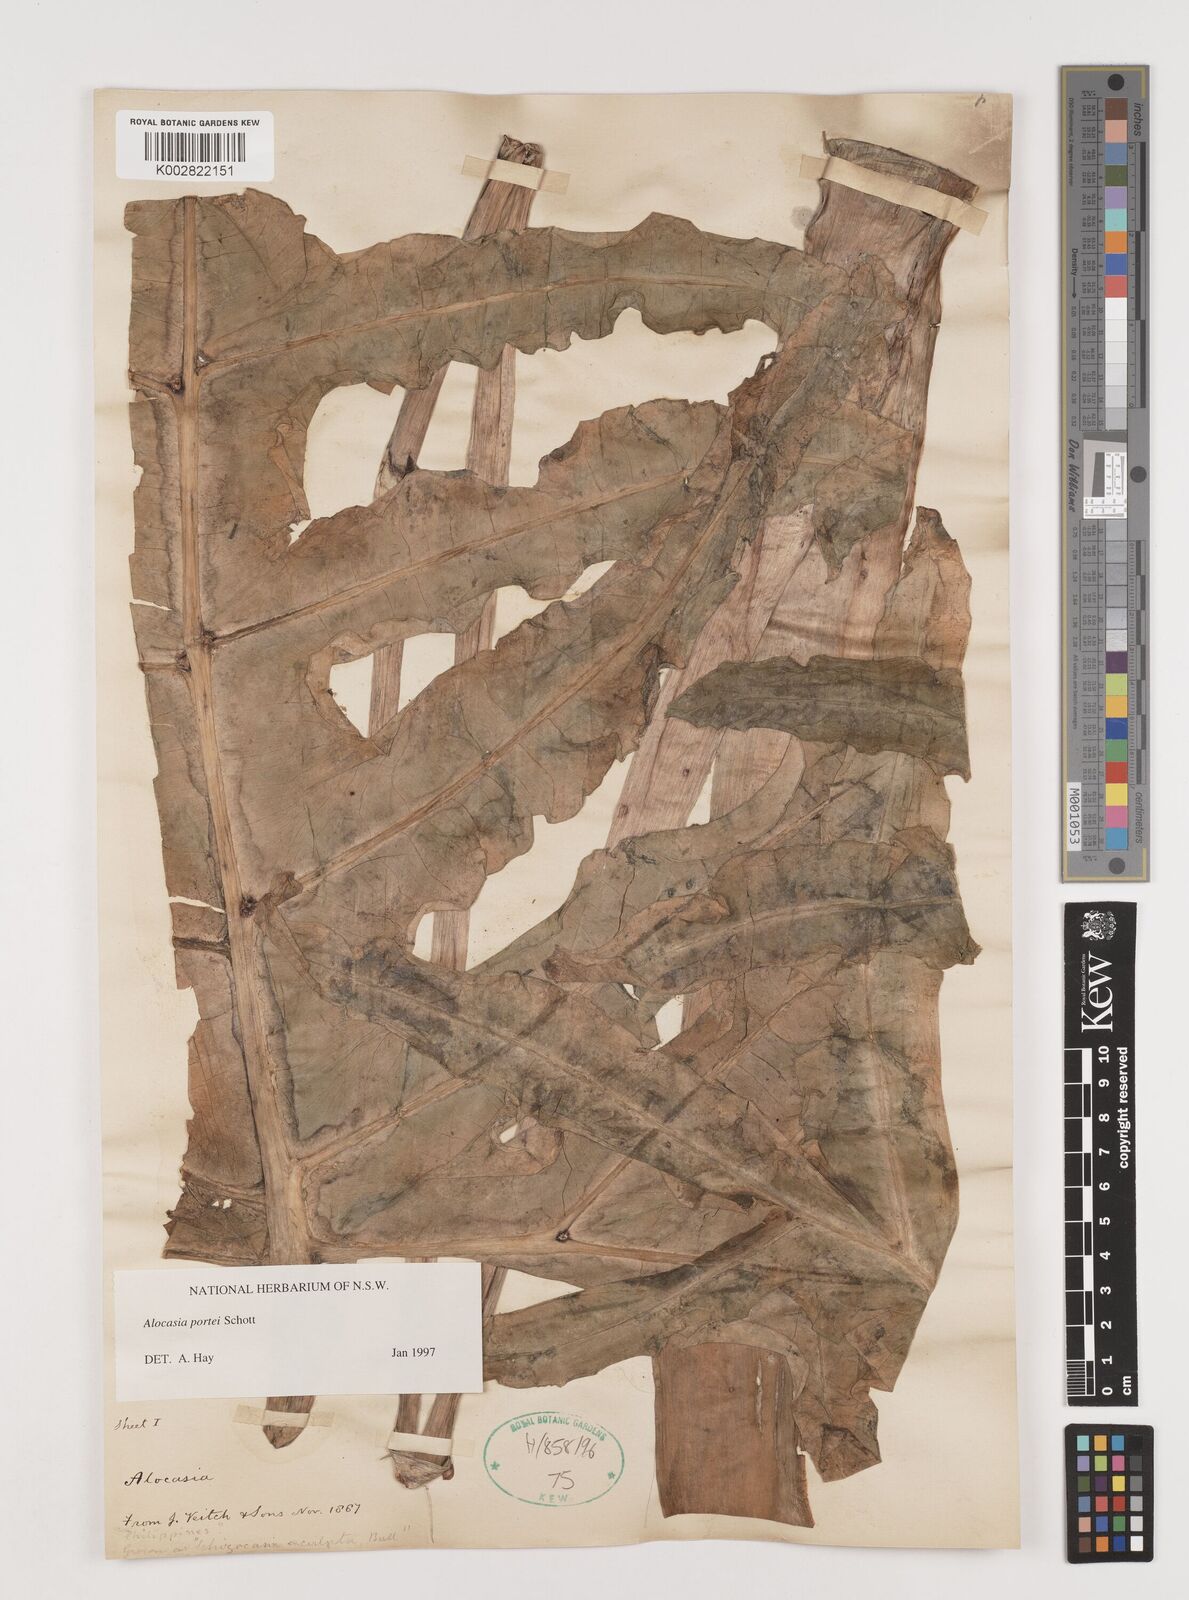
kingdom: Plantae
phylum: Tracheophyta
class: Liliopsida
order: Alismatales
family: Araceae
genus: Alocasia
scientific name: Alocasia portei
